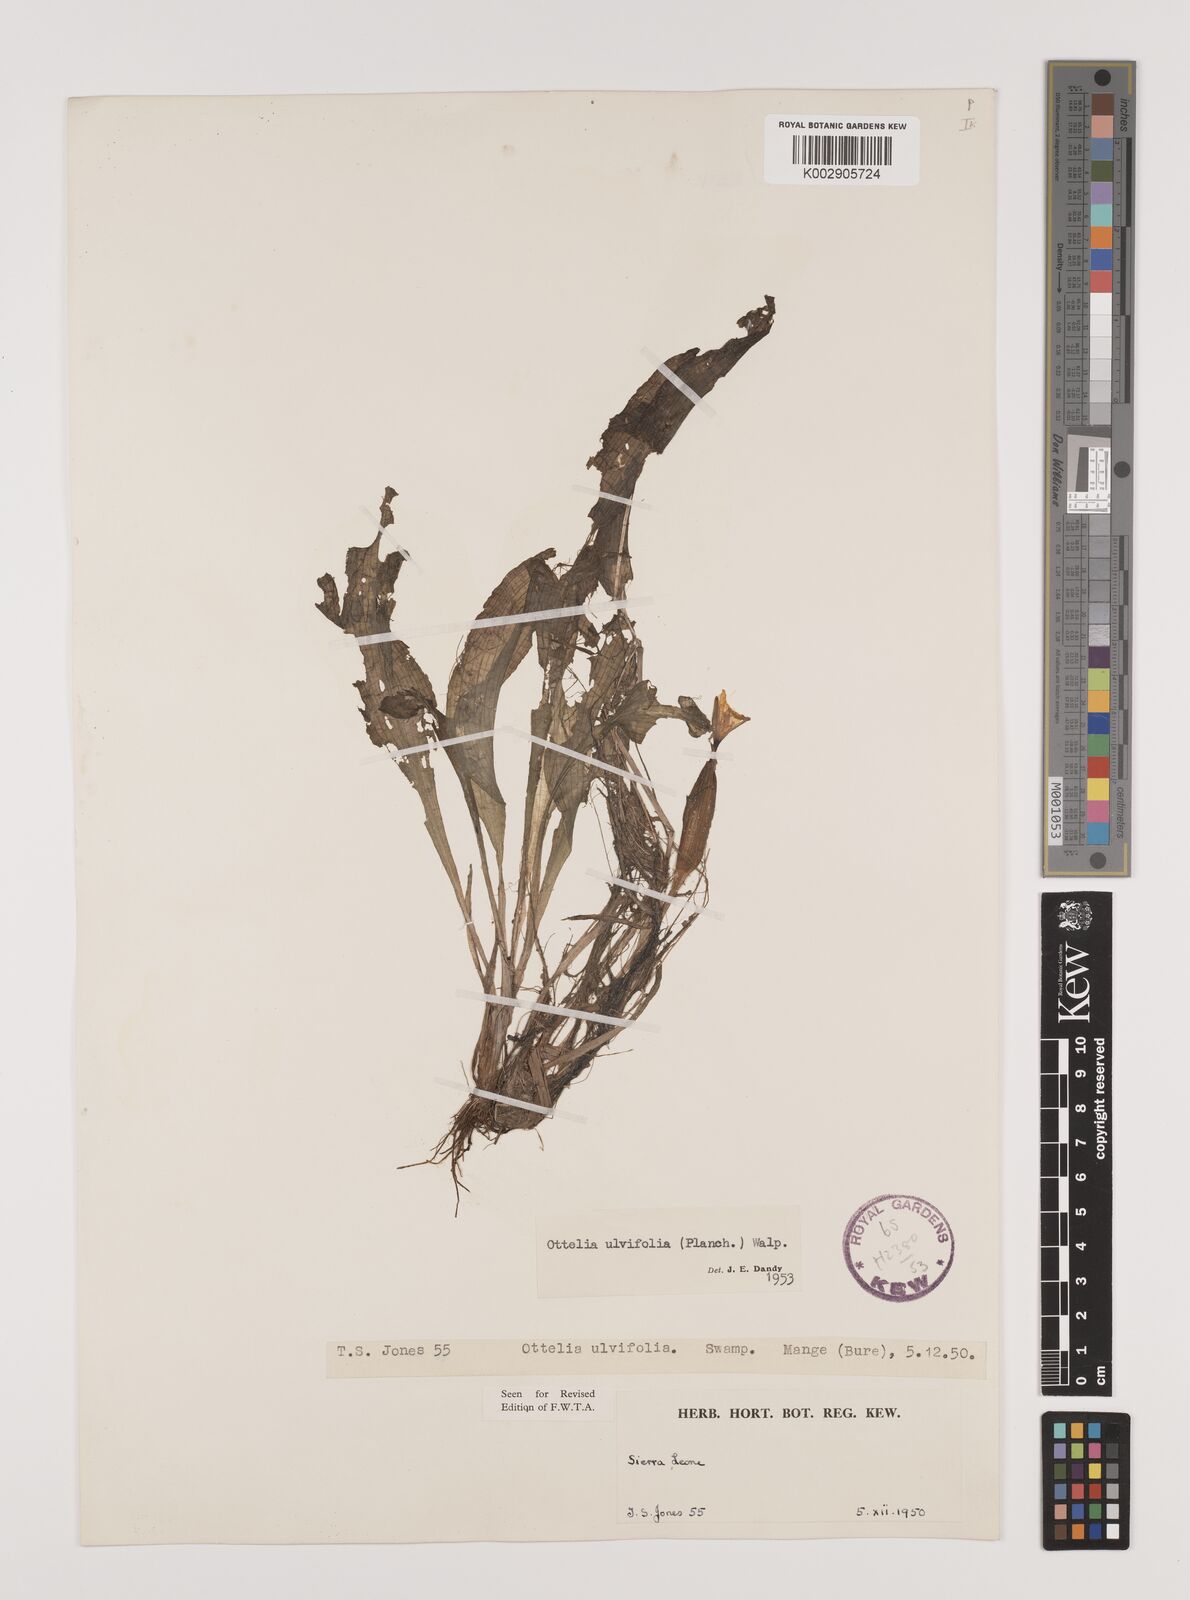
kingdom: Plantae
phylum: Tracheophyta
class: Liliopsida
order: Alismatales
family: Hydrocharitaceae
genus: Ottelia
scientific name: Ottelia ulvifolia
